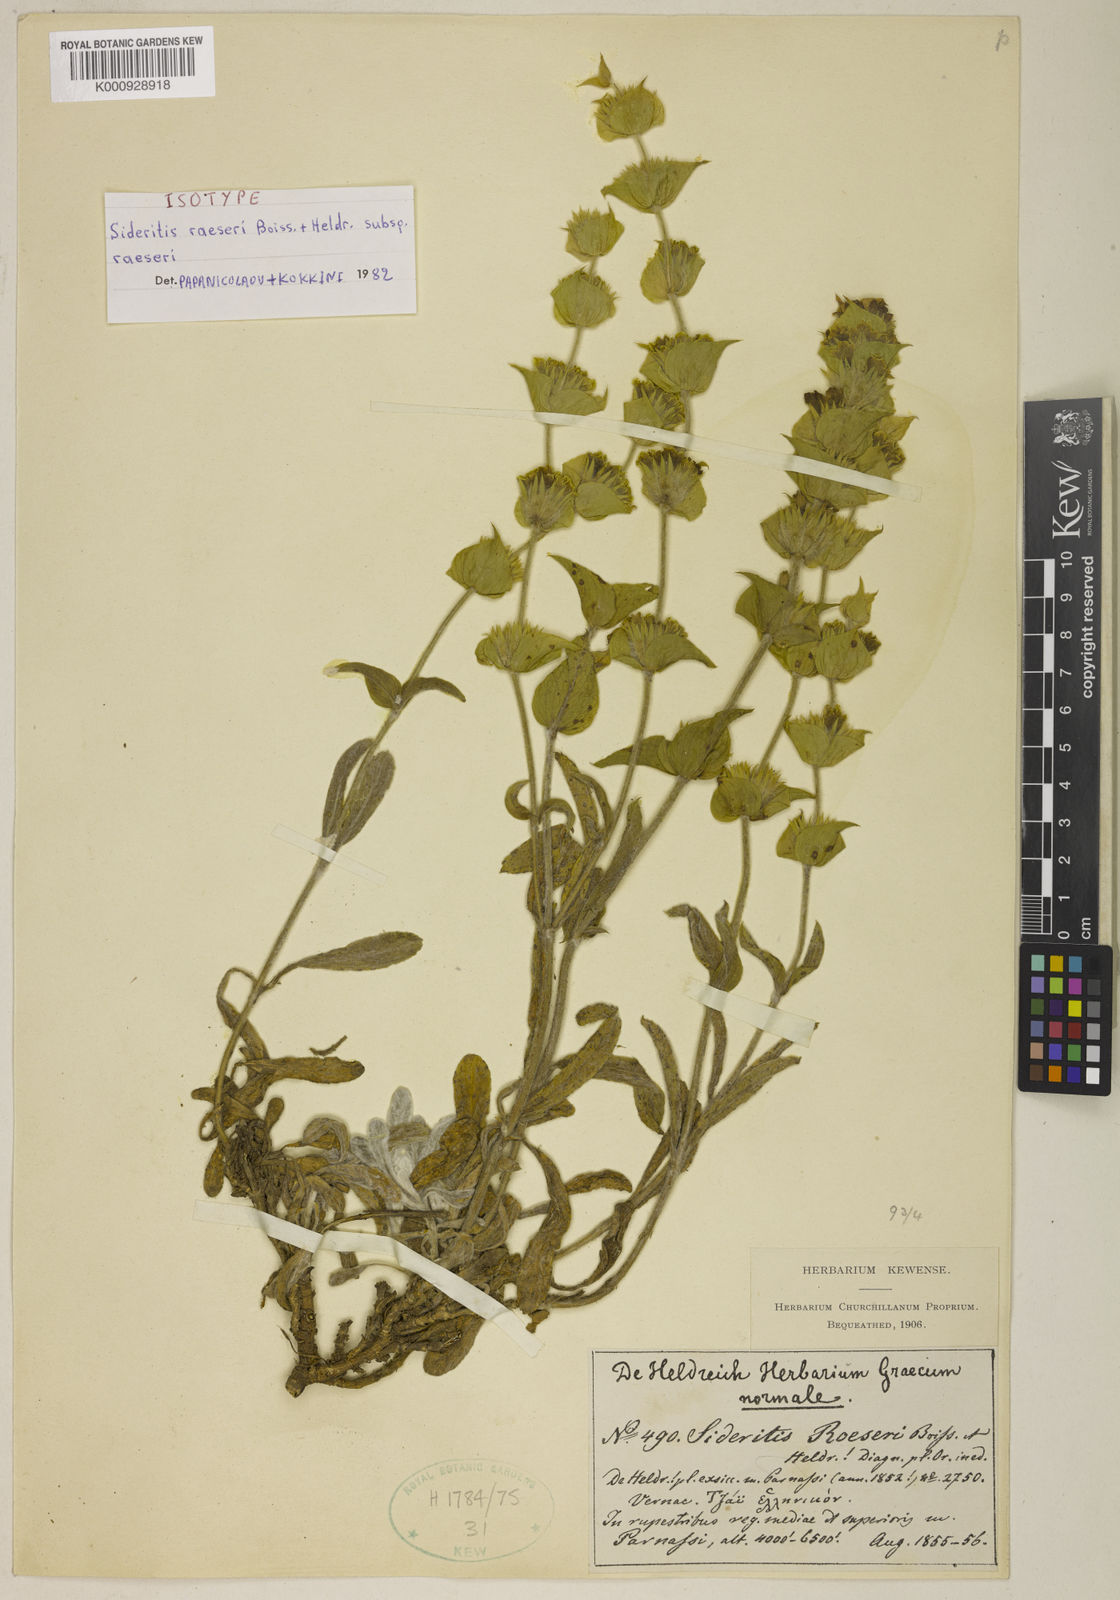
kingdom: Plantae
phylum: Tracheophyta
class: Magnoliopsida
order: Lamiales
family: Lamiaceae
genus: Sideritis
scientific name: Sideritis syriaca
